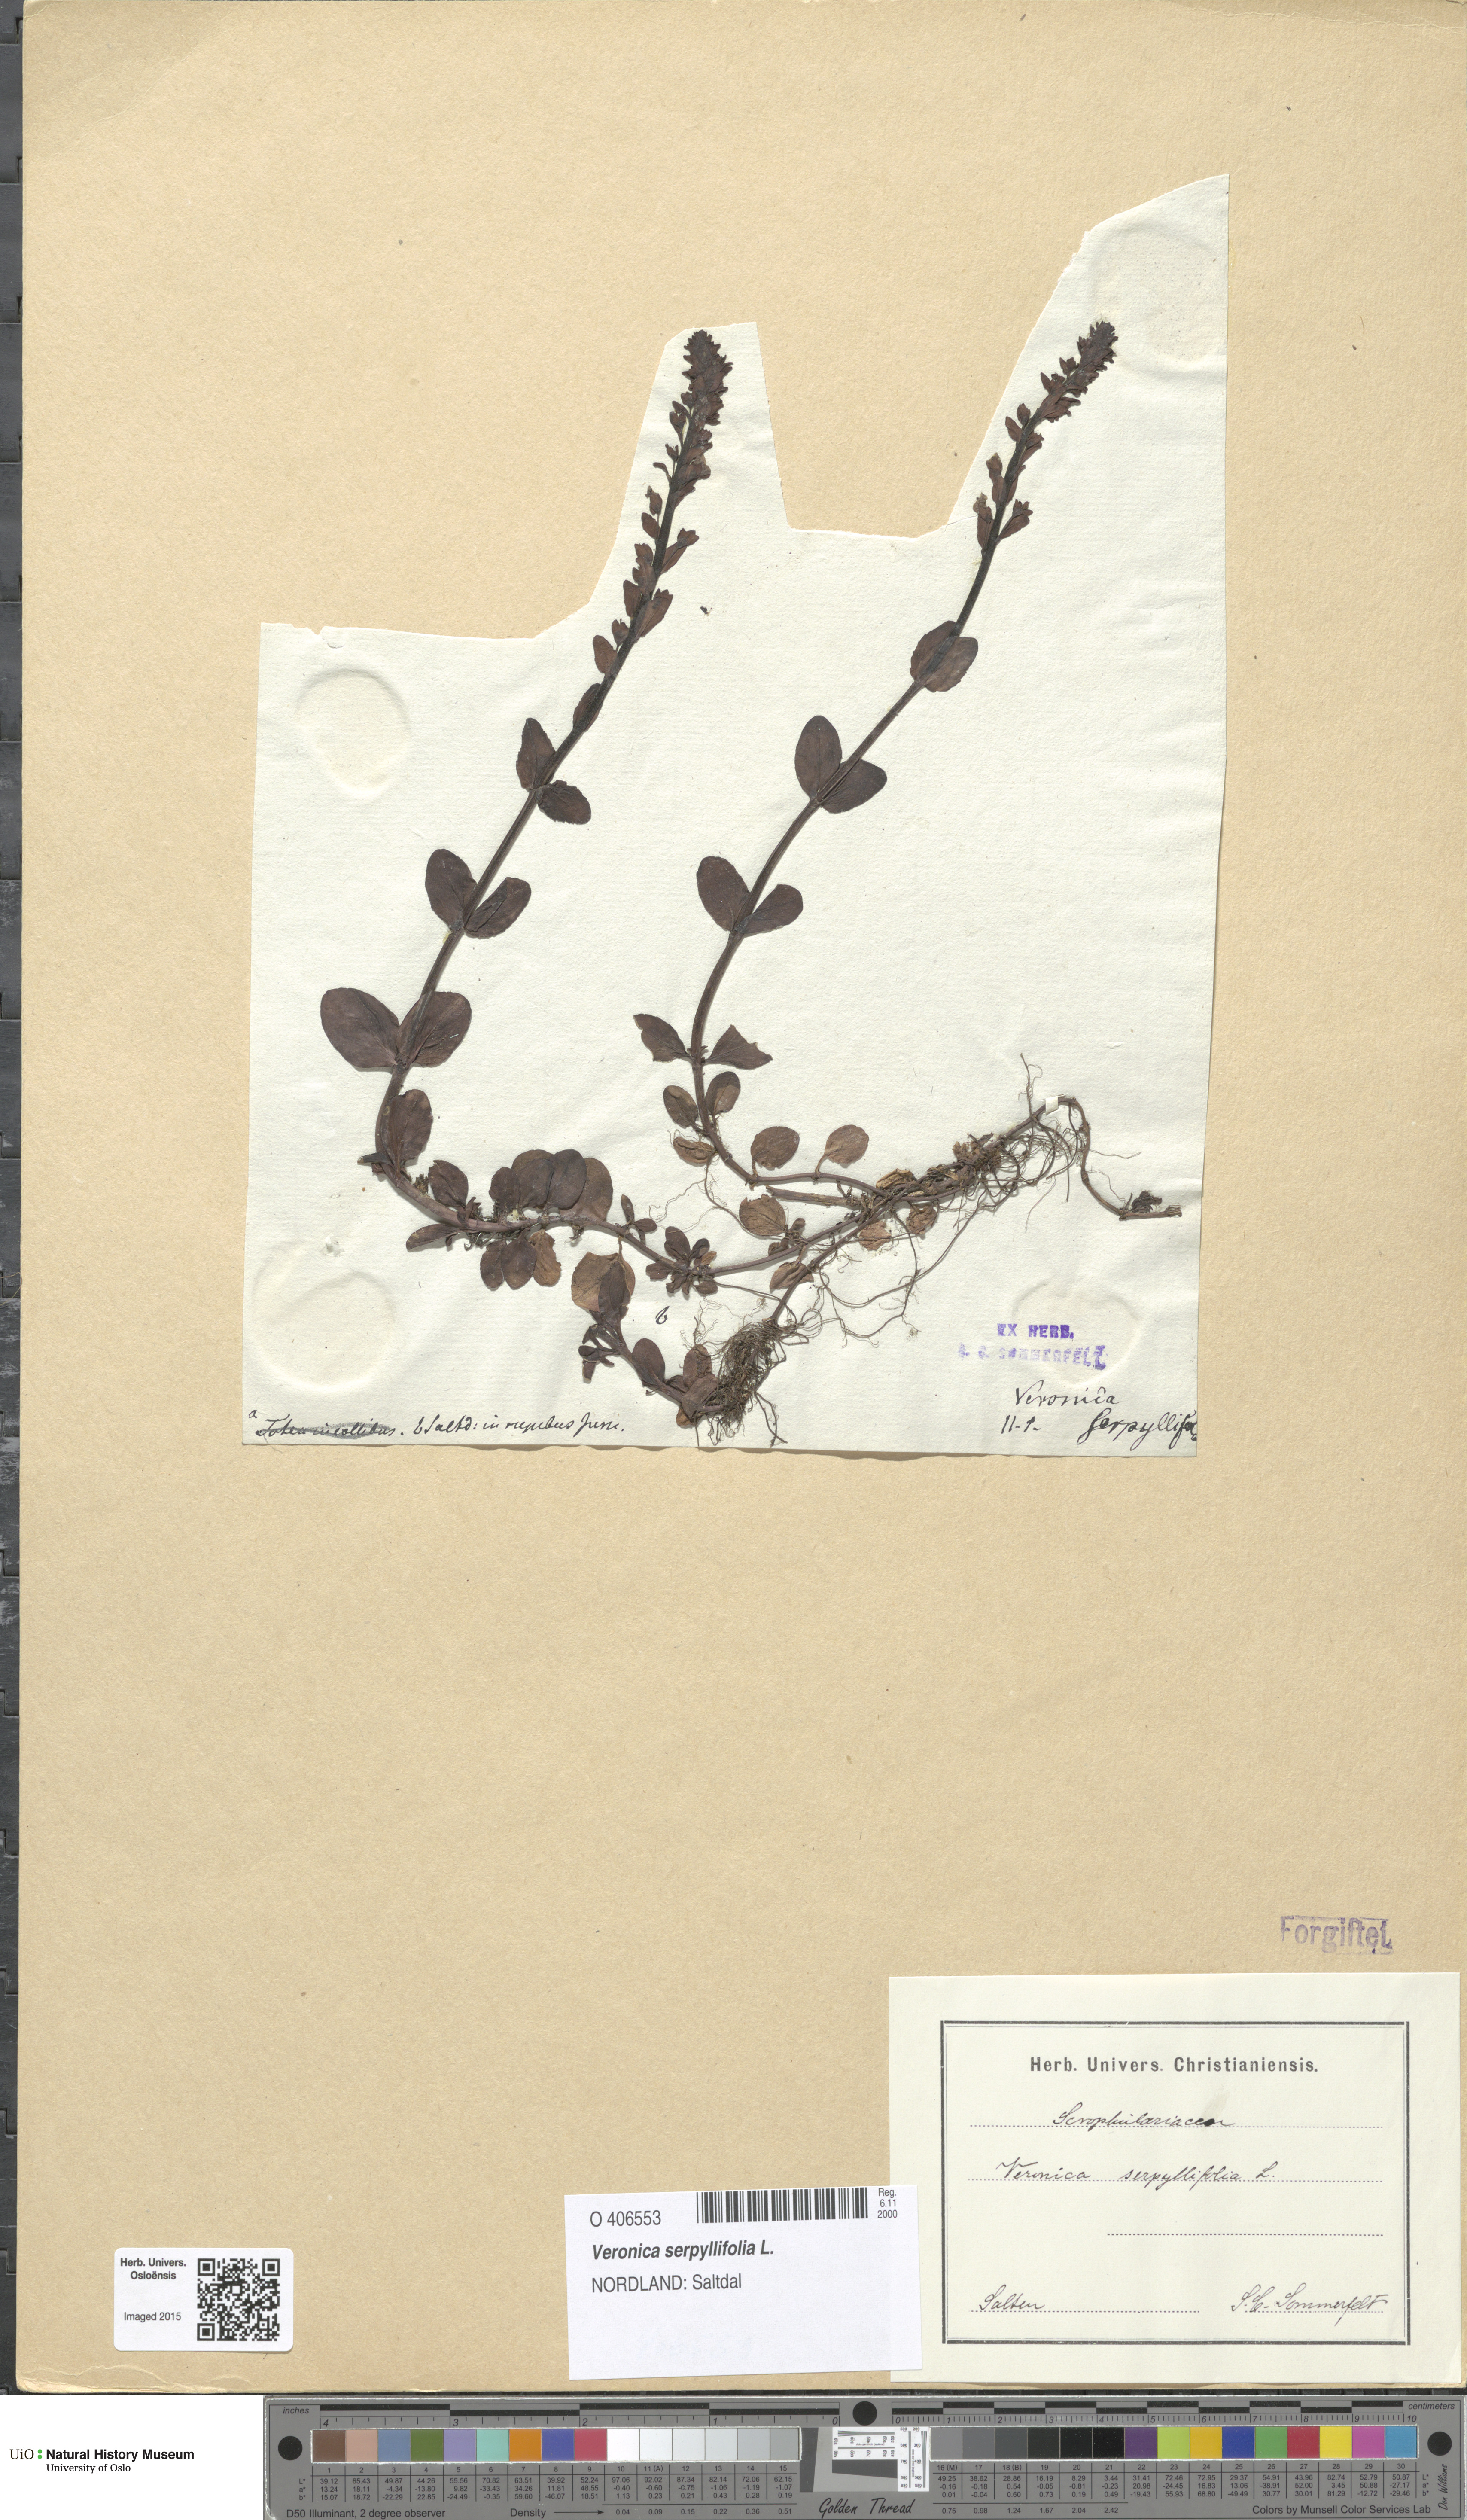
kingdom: Plantae
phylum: Tracheophyta
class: Magnoliopsida
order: Lamiales
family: Plantaginaceae
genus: Veronica
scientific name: Veronica serpyllifolia
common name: Thyme-leaved speedwell
